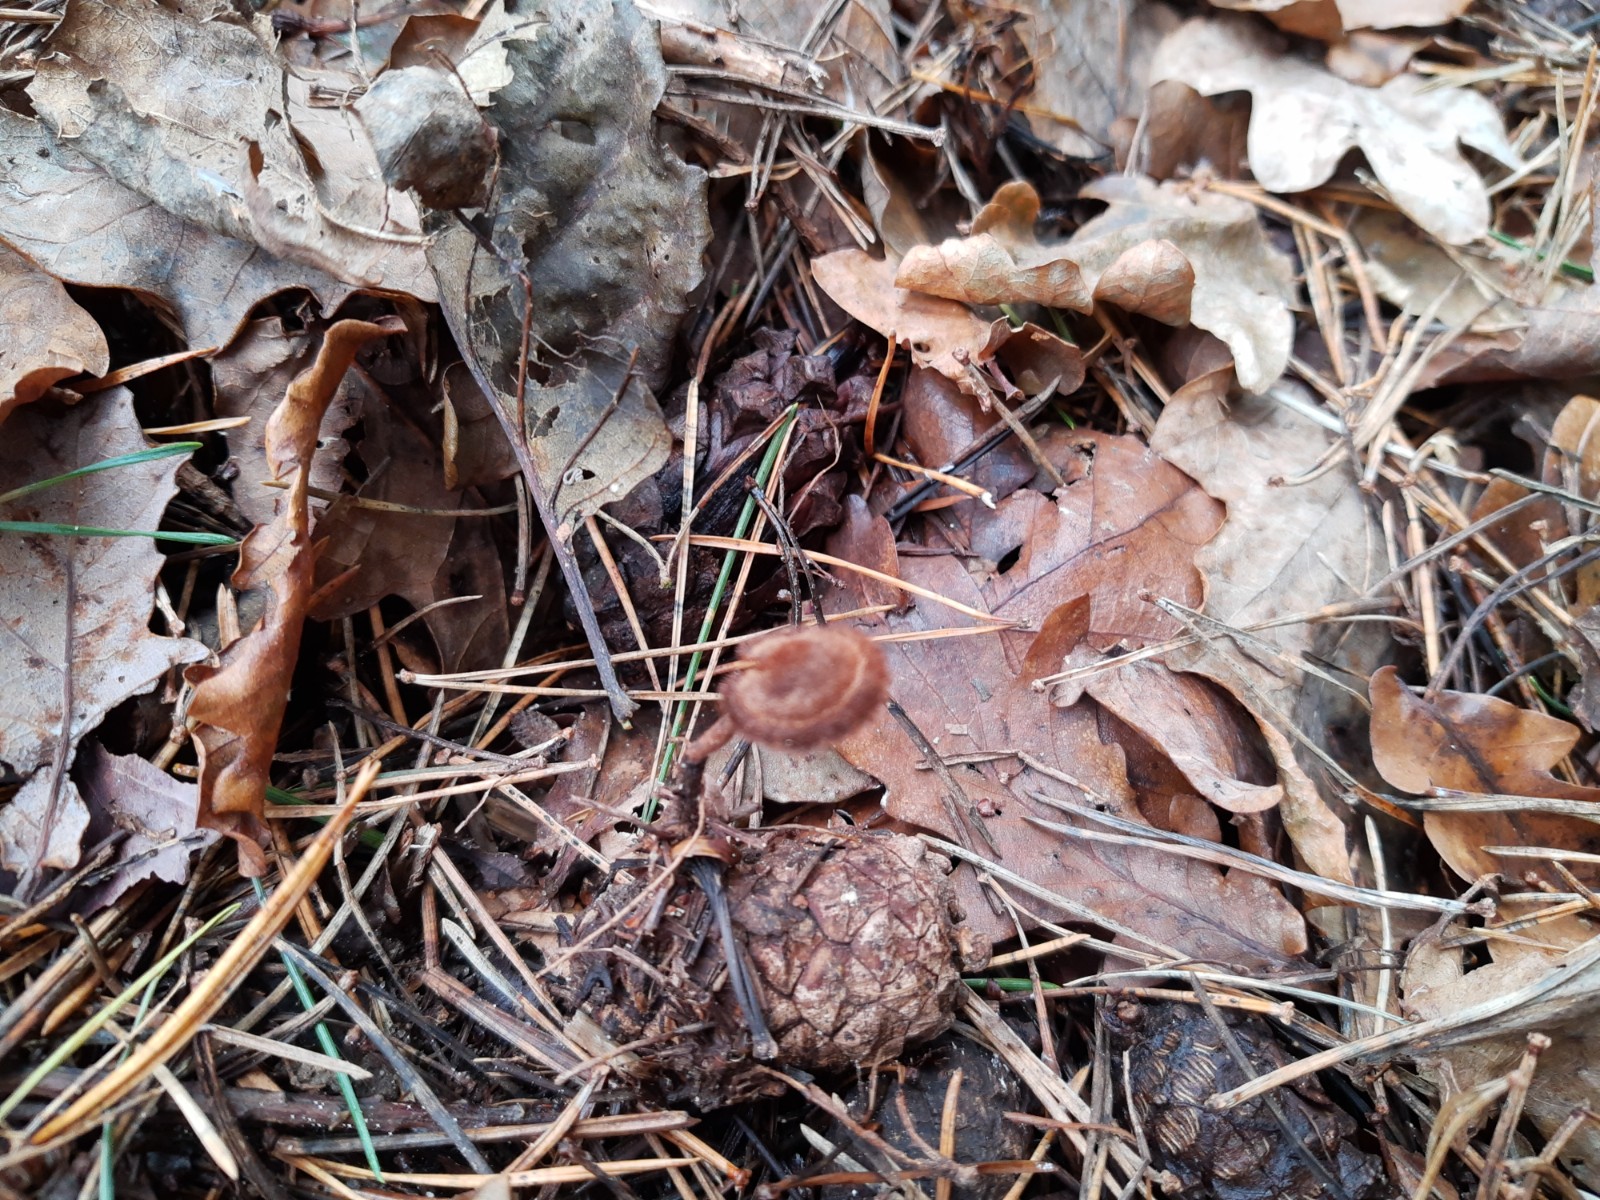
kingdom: Fungi
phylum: Basidiomycota
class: Agaricomycetes
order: Russulales
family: Auriscalpiaceae
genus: Auriscalpium
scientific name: Auriscalpium vulgare
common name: koglepigsvamp
